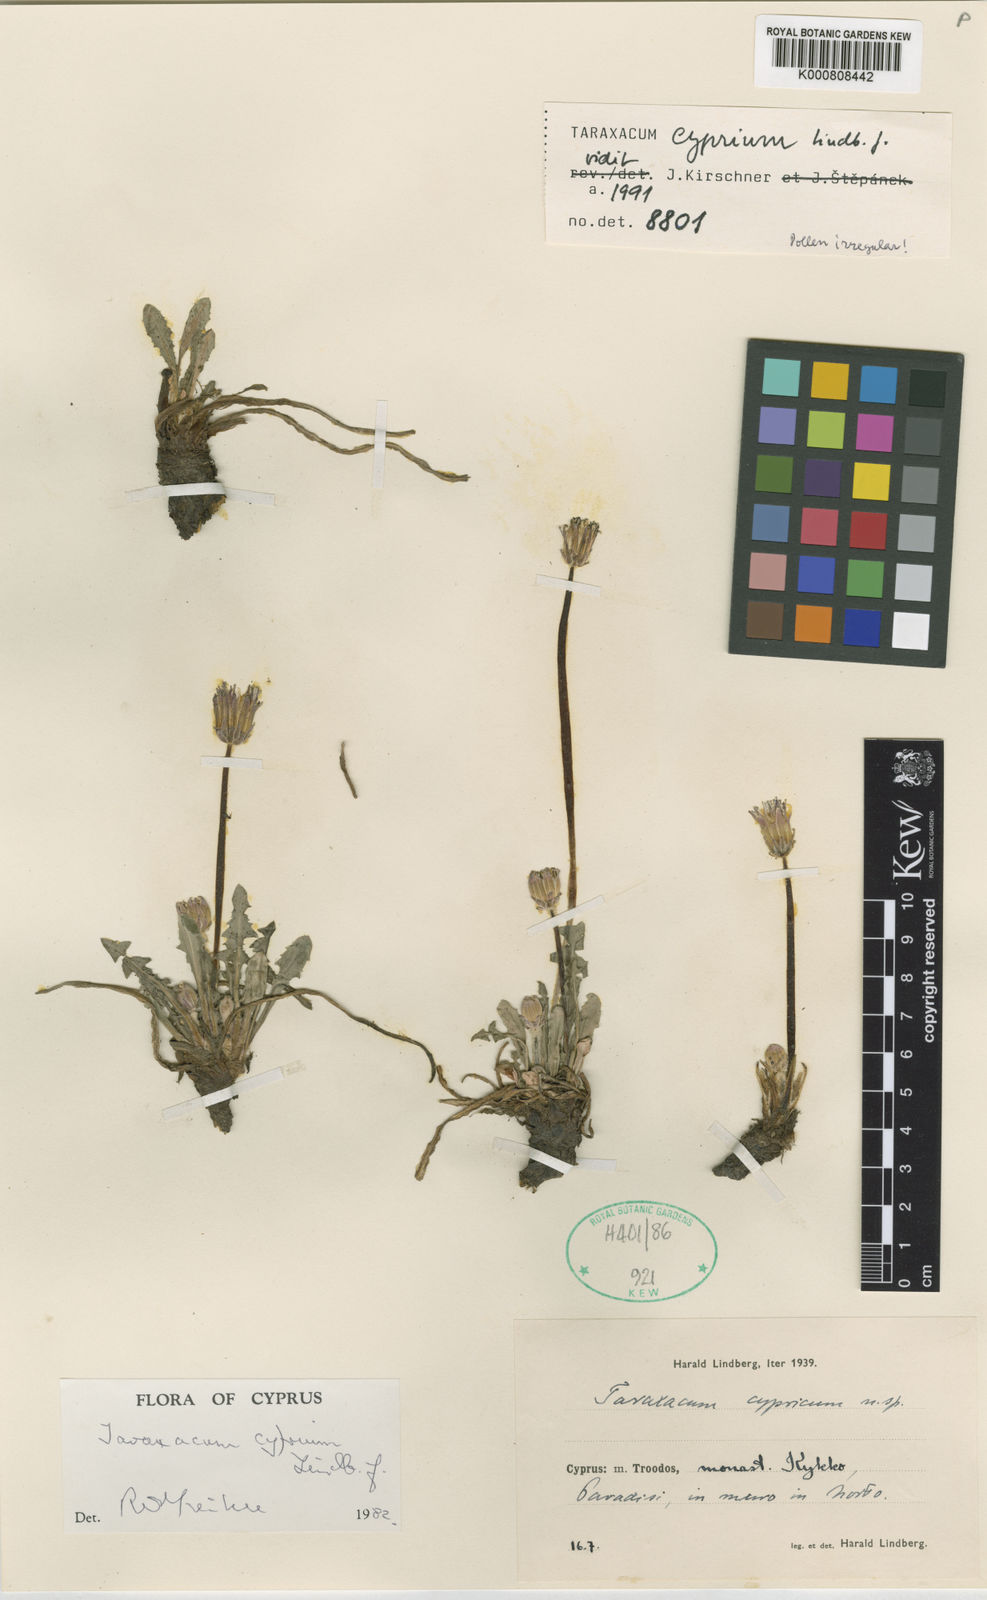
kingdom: Plantae
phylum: Tracheophyta
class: Magnoliopsida
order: Asterales
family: Asteraceae
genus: Taraxacum
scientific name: Taraxacum cyprium
